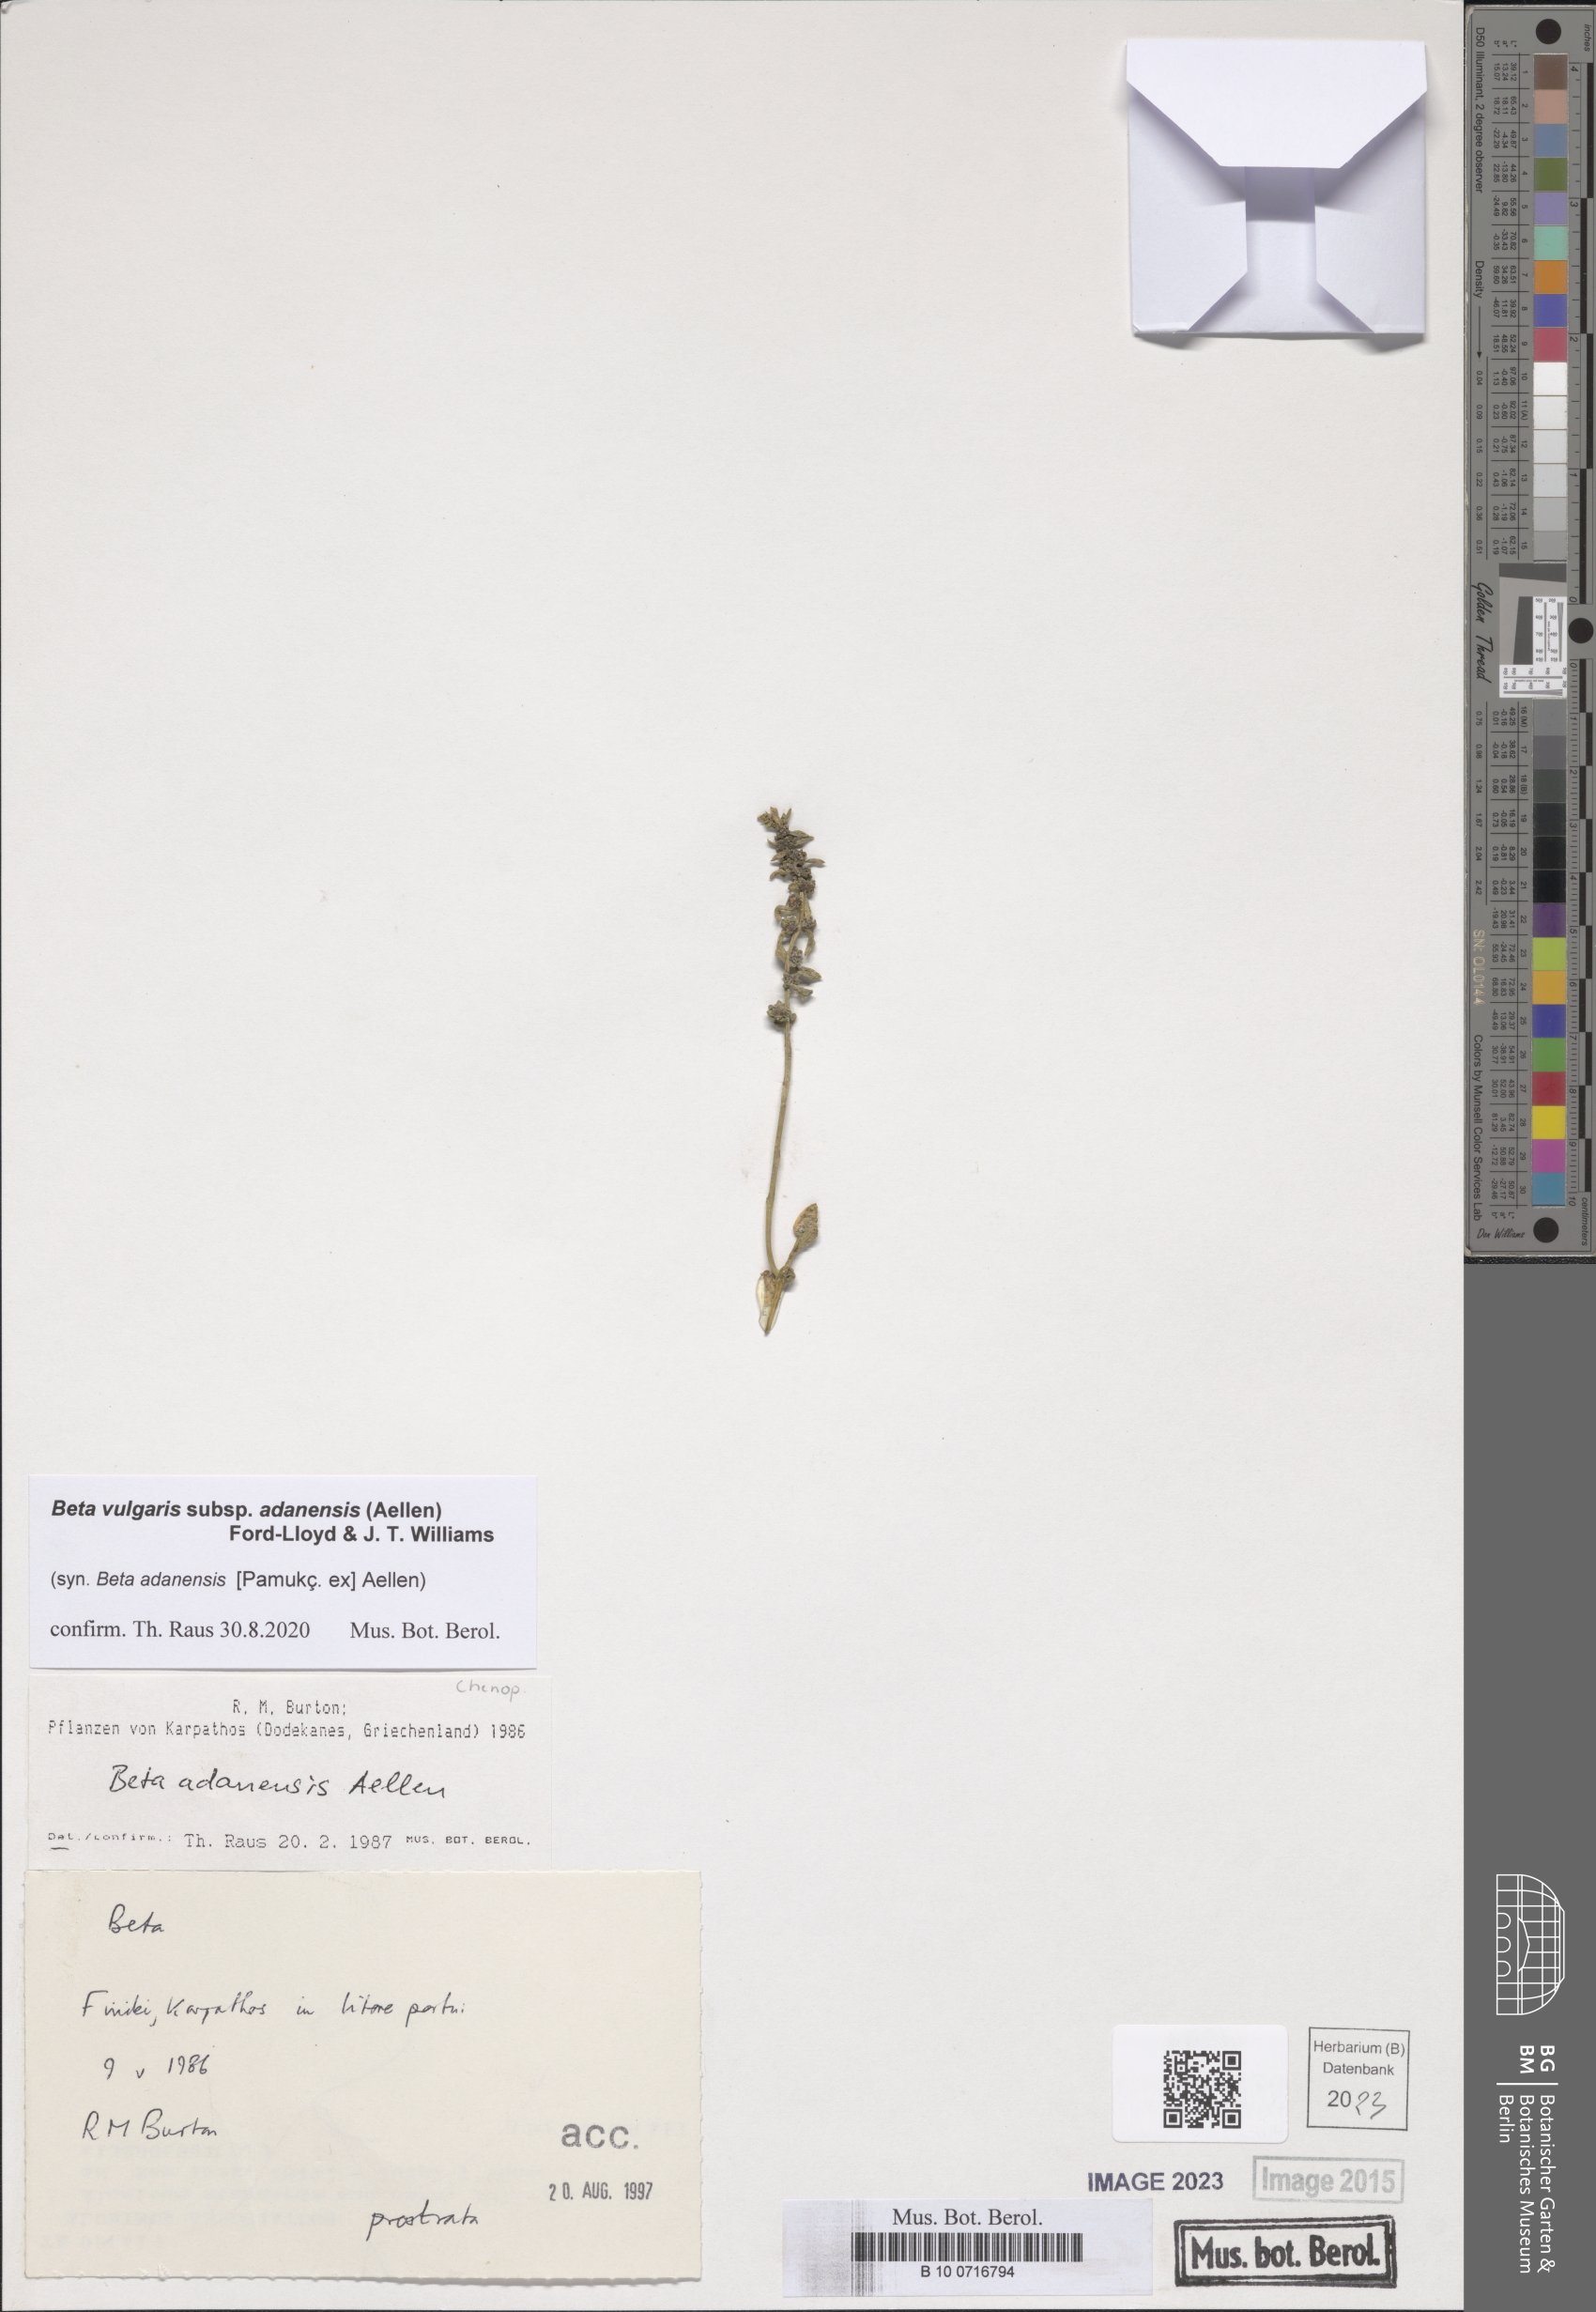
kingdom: Plantae
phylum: Tracheophyta
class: Magnoliopsida
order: Caryophyllales
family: Amaranthaceae
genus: Beta
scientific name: Beta adanensis
